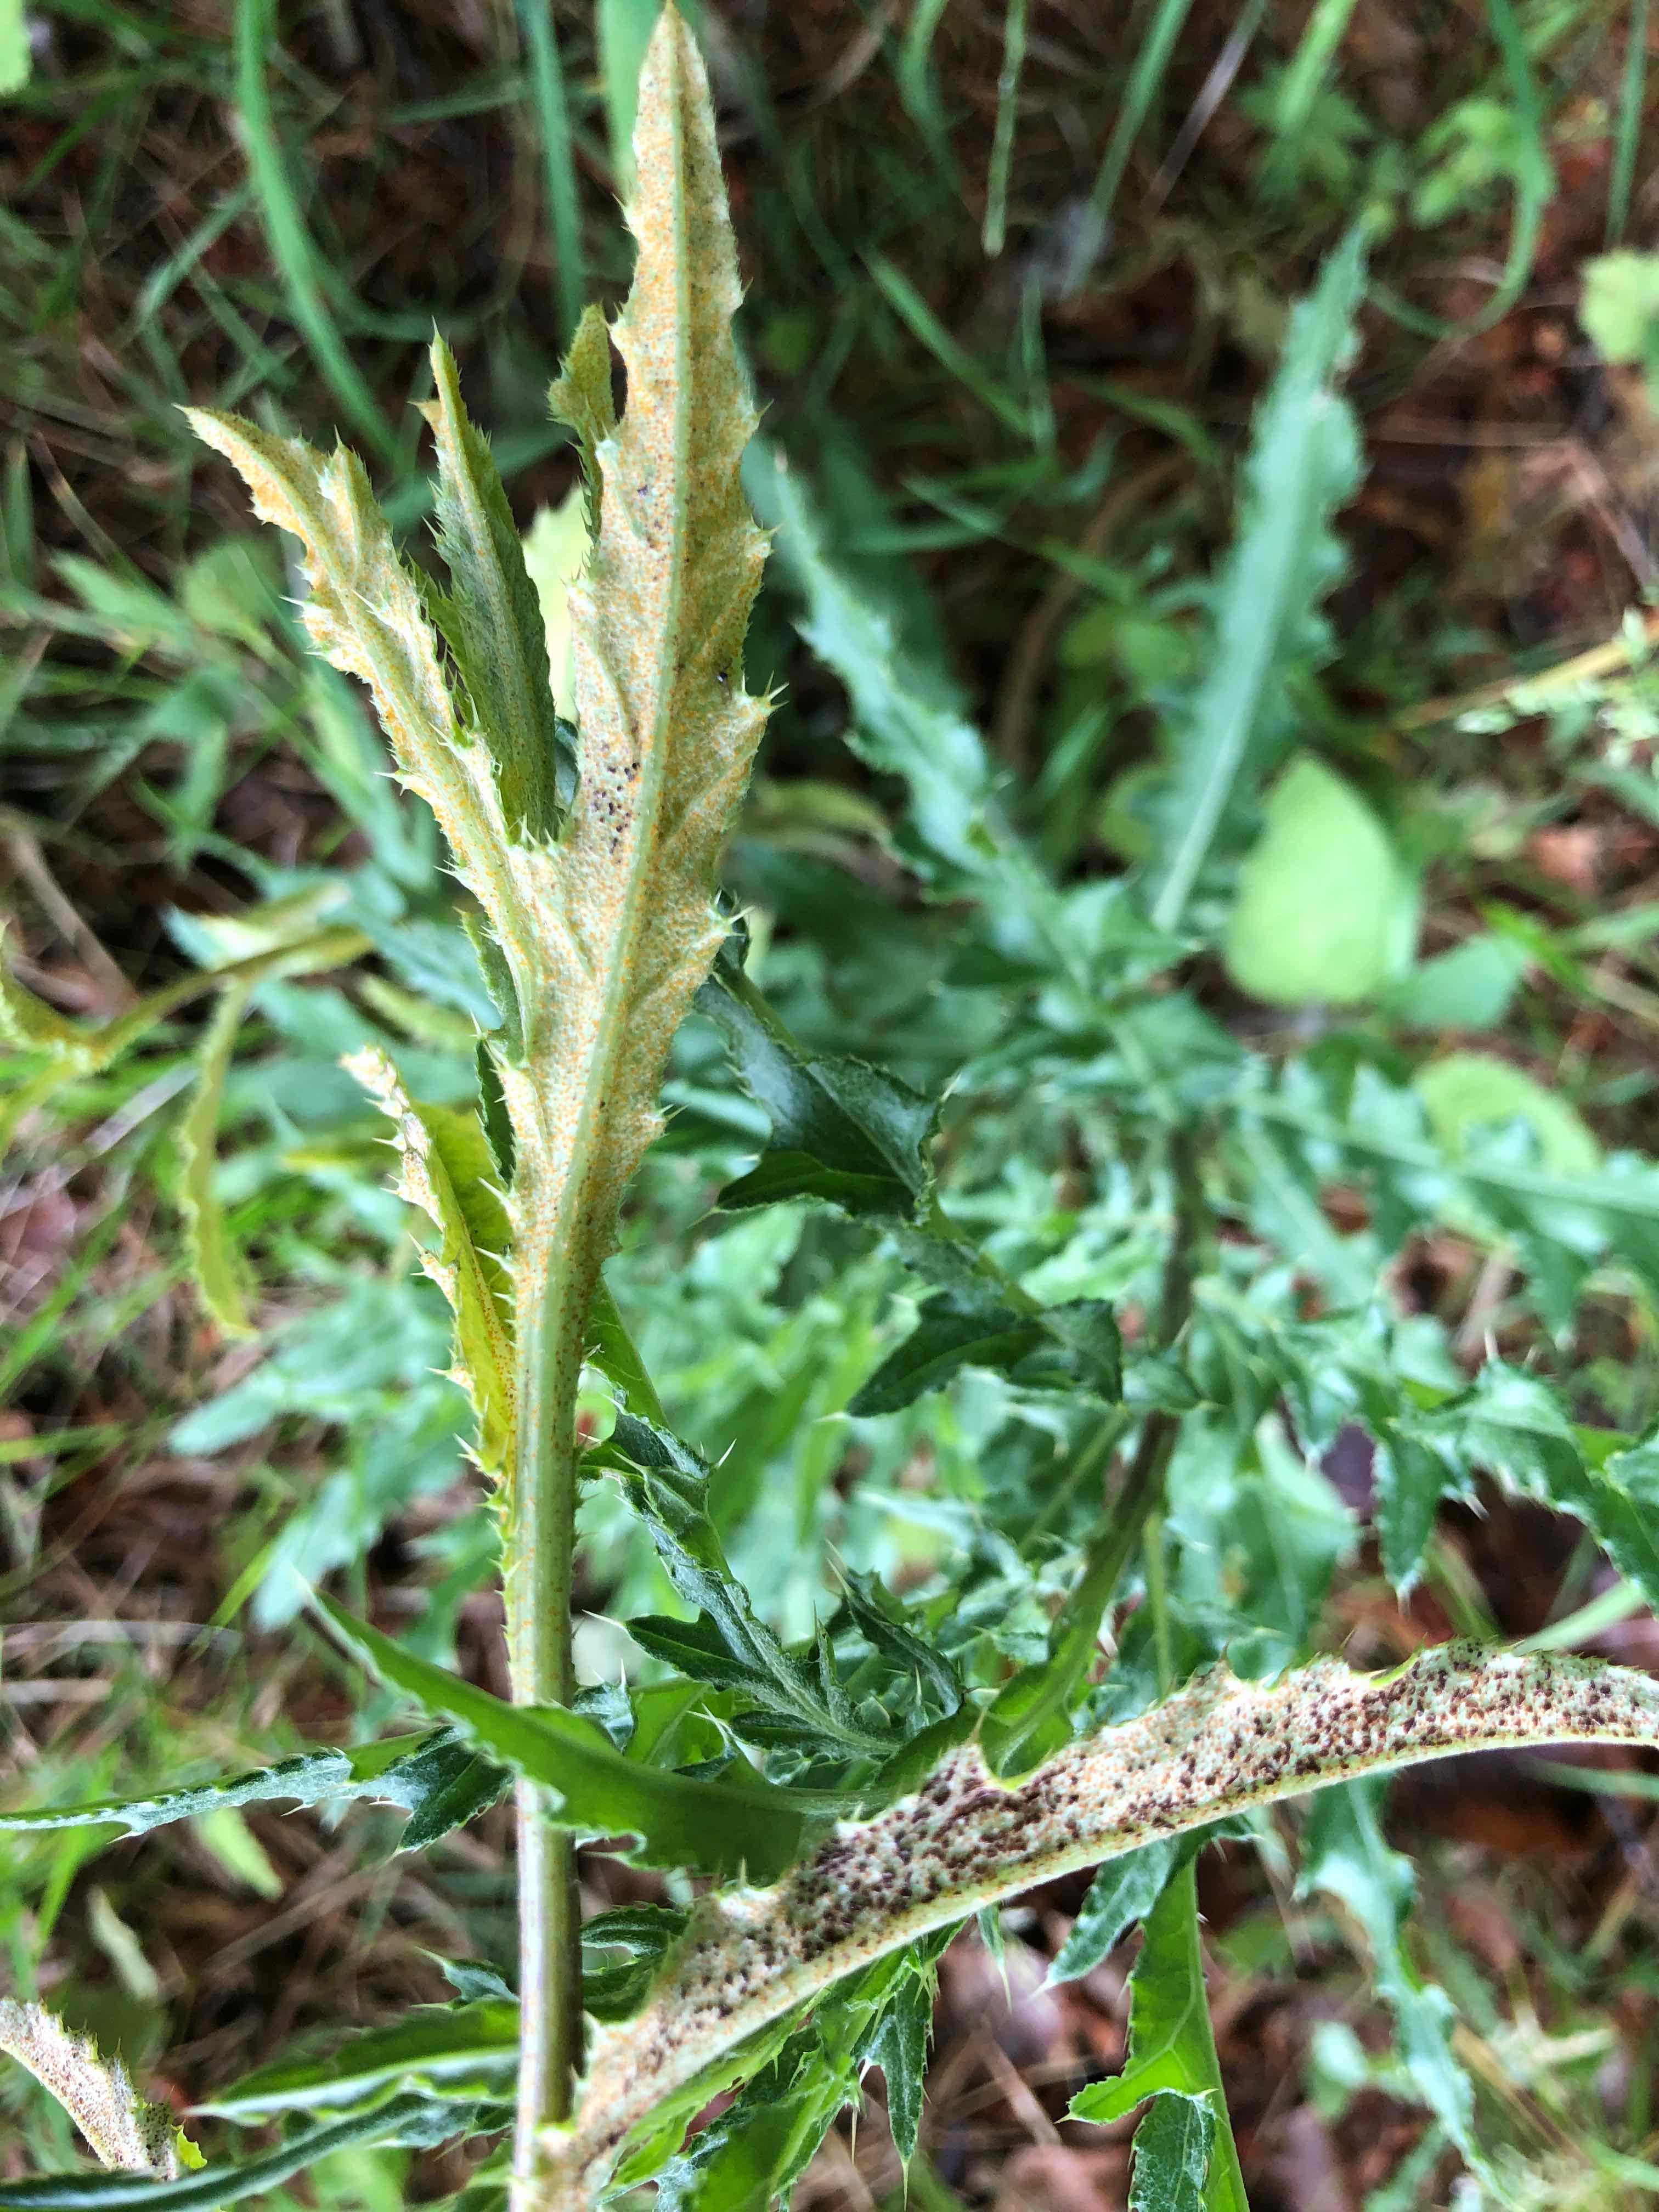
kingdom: Fungi
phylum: Basidiomycota
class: Pucciniomycetes
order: Pucciniales
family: Pucciniaceae
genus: Puccinia
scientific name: Puccinia suaveolens
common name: tidsel-tvecellerust
